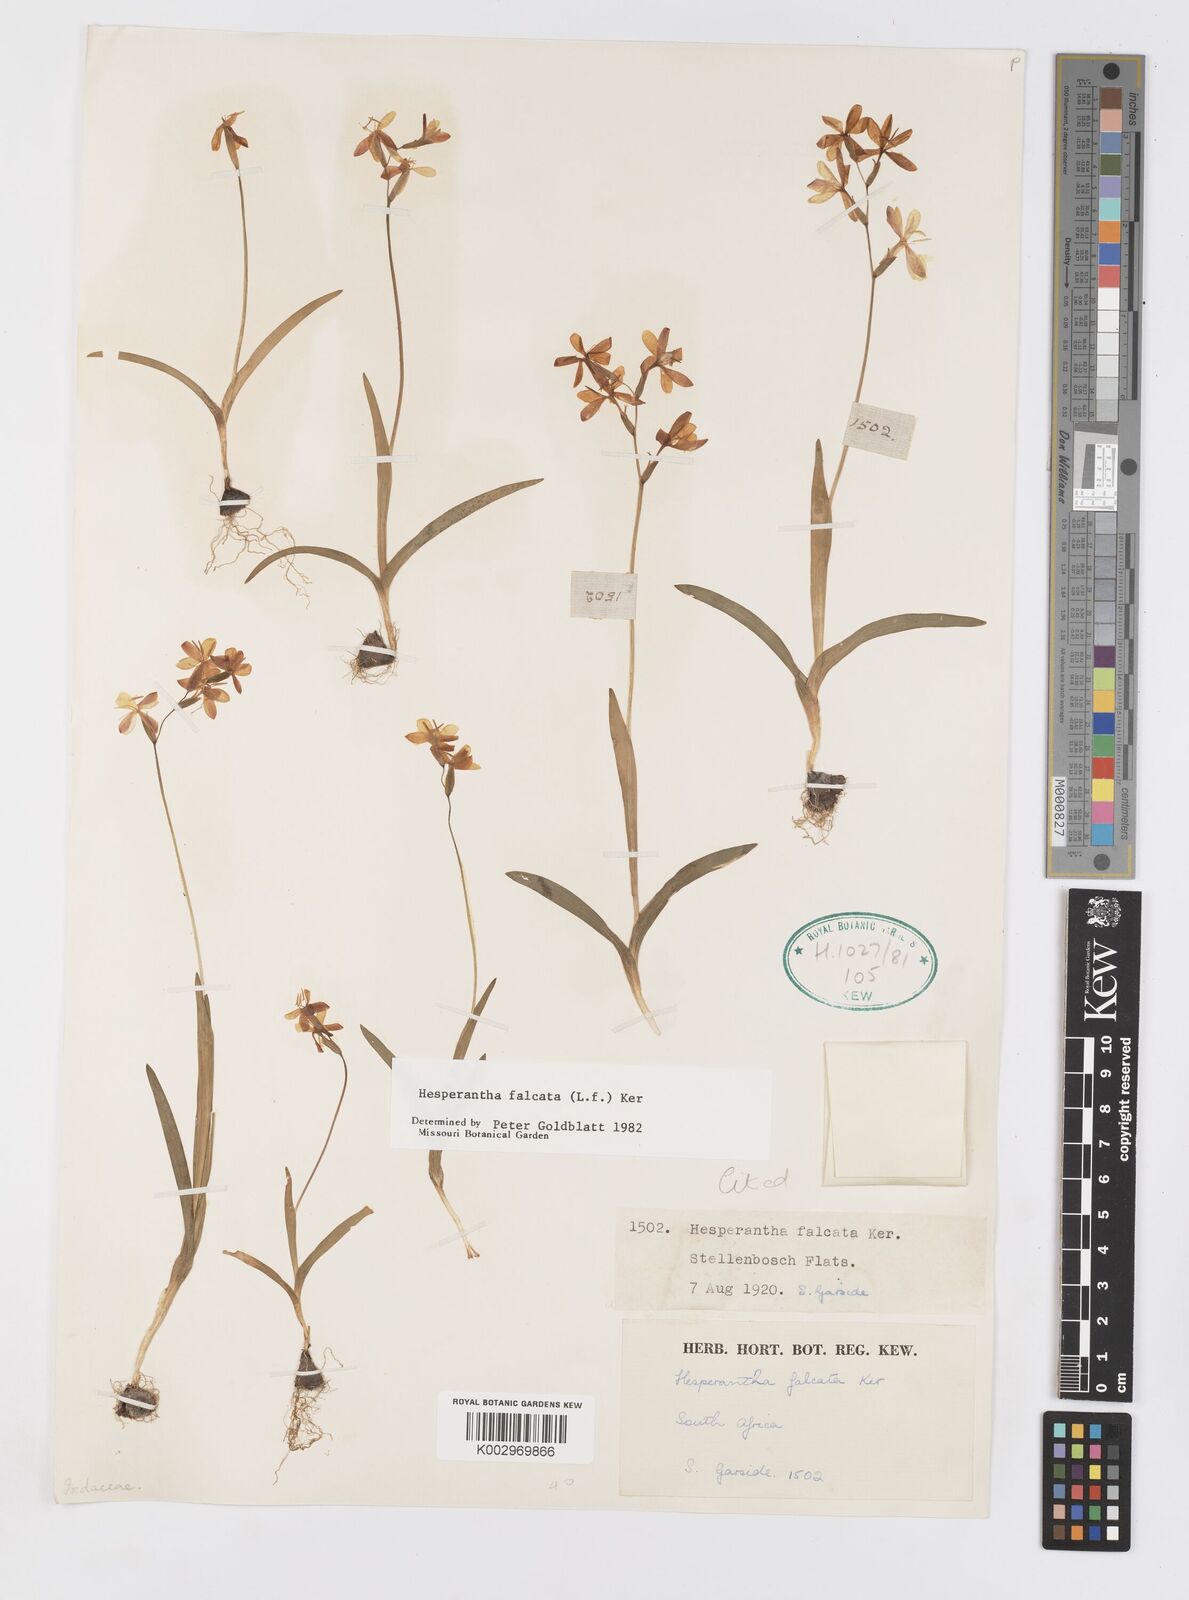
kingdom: Plantae
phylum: Tracheophyta
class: Liliopsida
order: Asparagales
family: Iridaceae
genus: Hesperantha
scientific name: Hesperantha falcata
